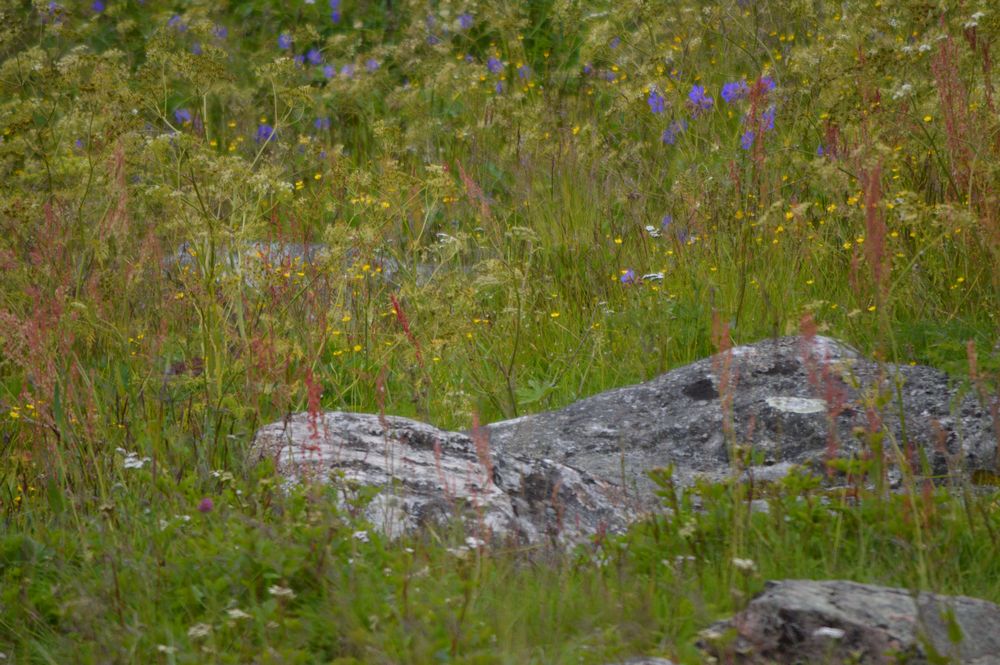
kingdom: Plantae
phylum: Tracheophyta
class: Magnoliopsida
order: Geraniales
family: Geraniaceae
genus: Geranium
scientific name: Geranium pratense
